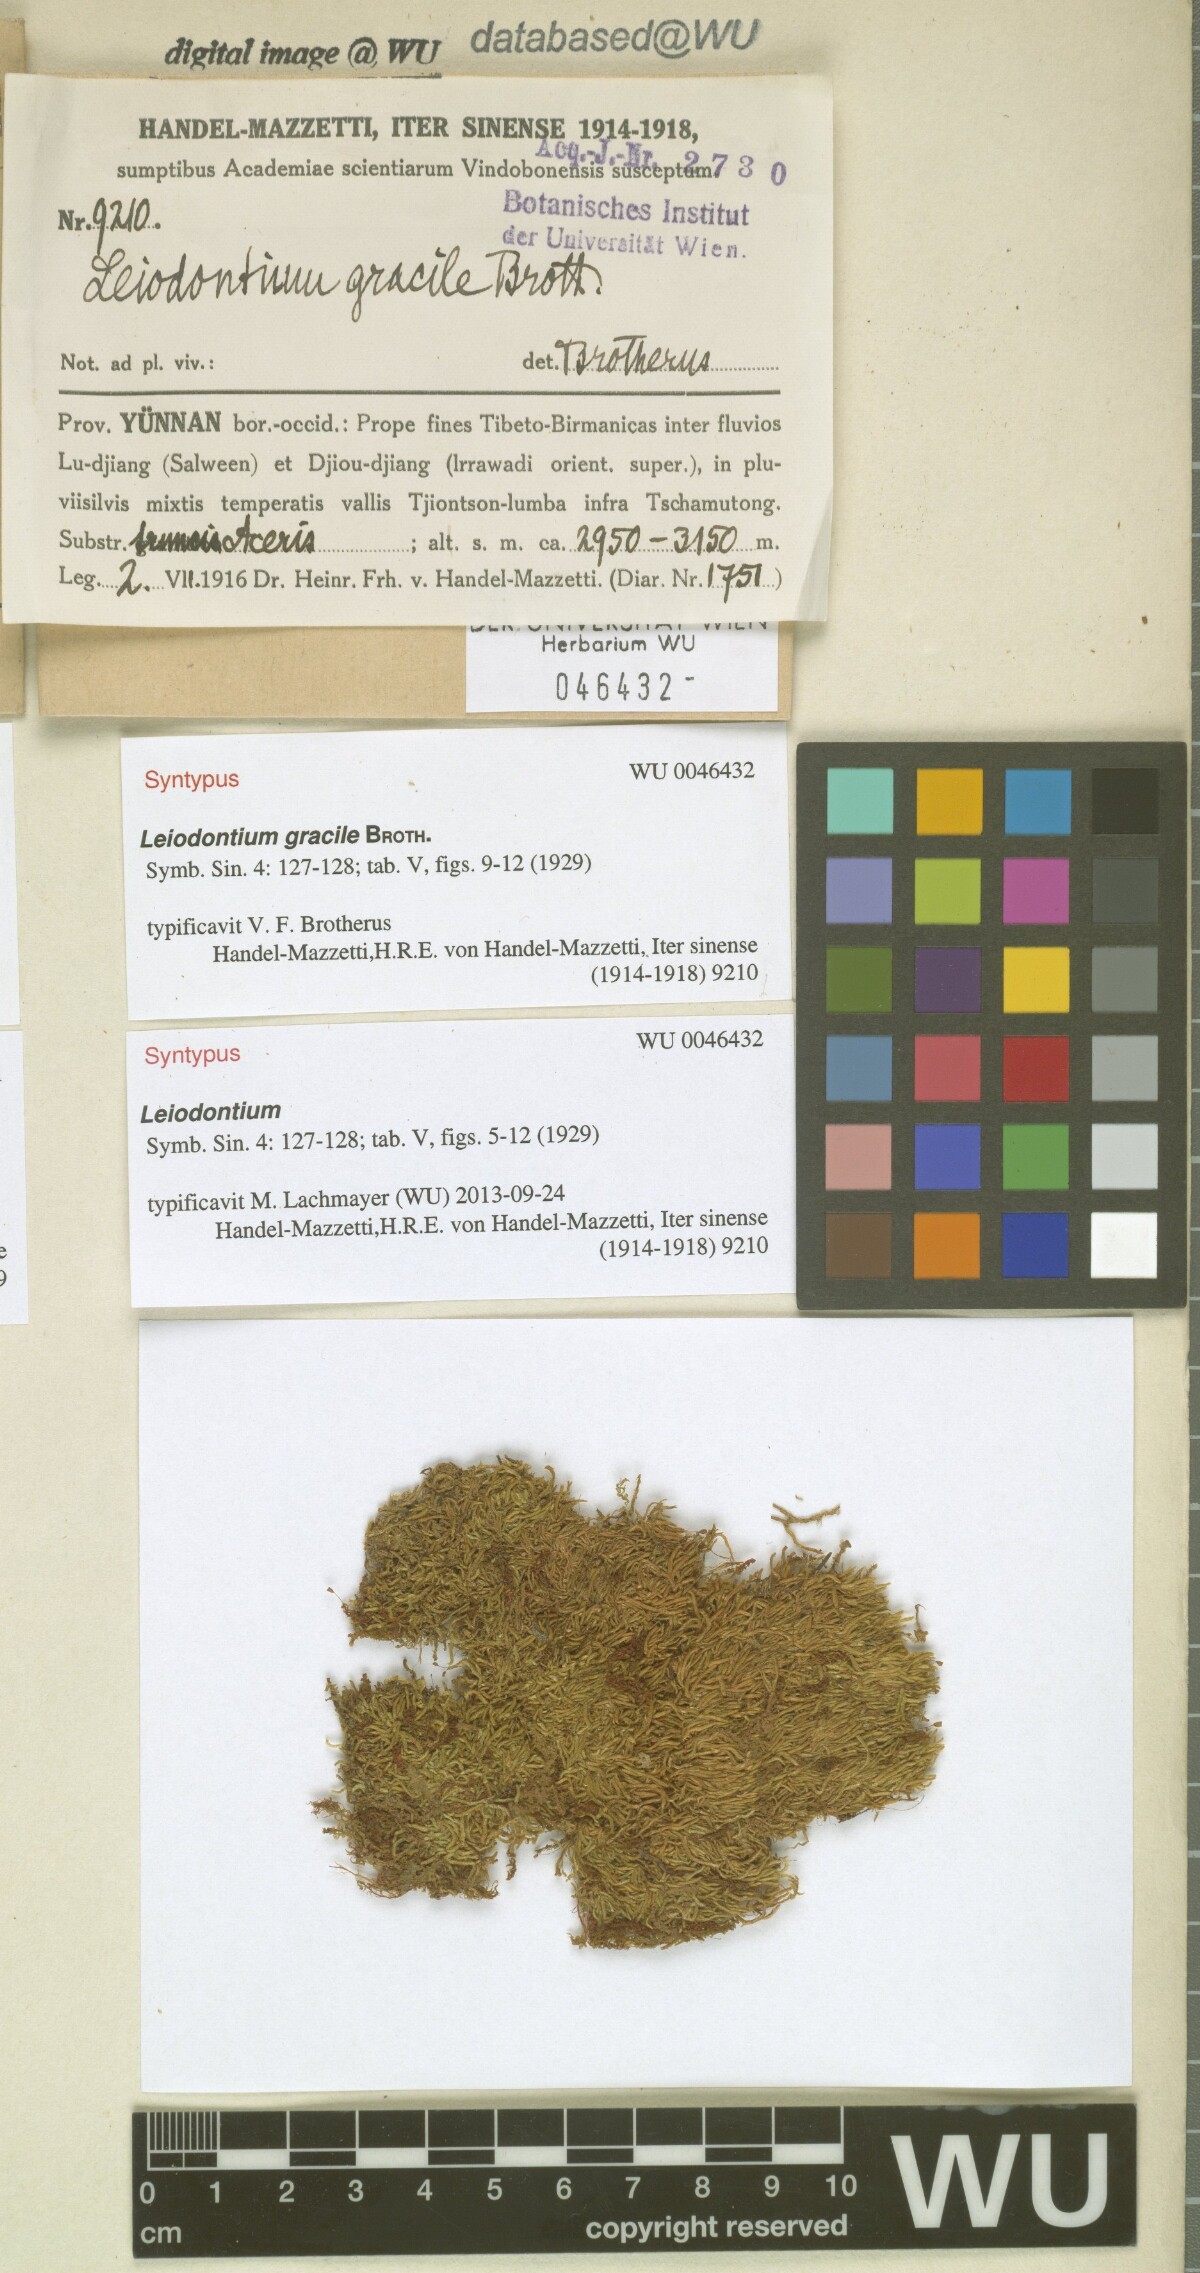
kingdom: Plantae
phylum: Bryophyta
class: Bryopsida
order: Hypnales
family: Hypnaceae
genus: Leiodontium
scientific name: Leiodontium gracile
